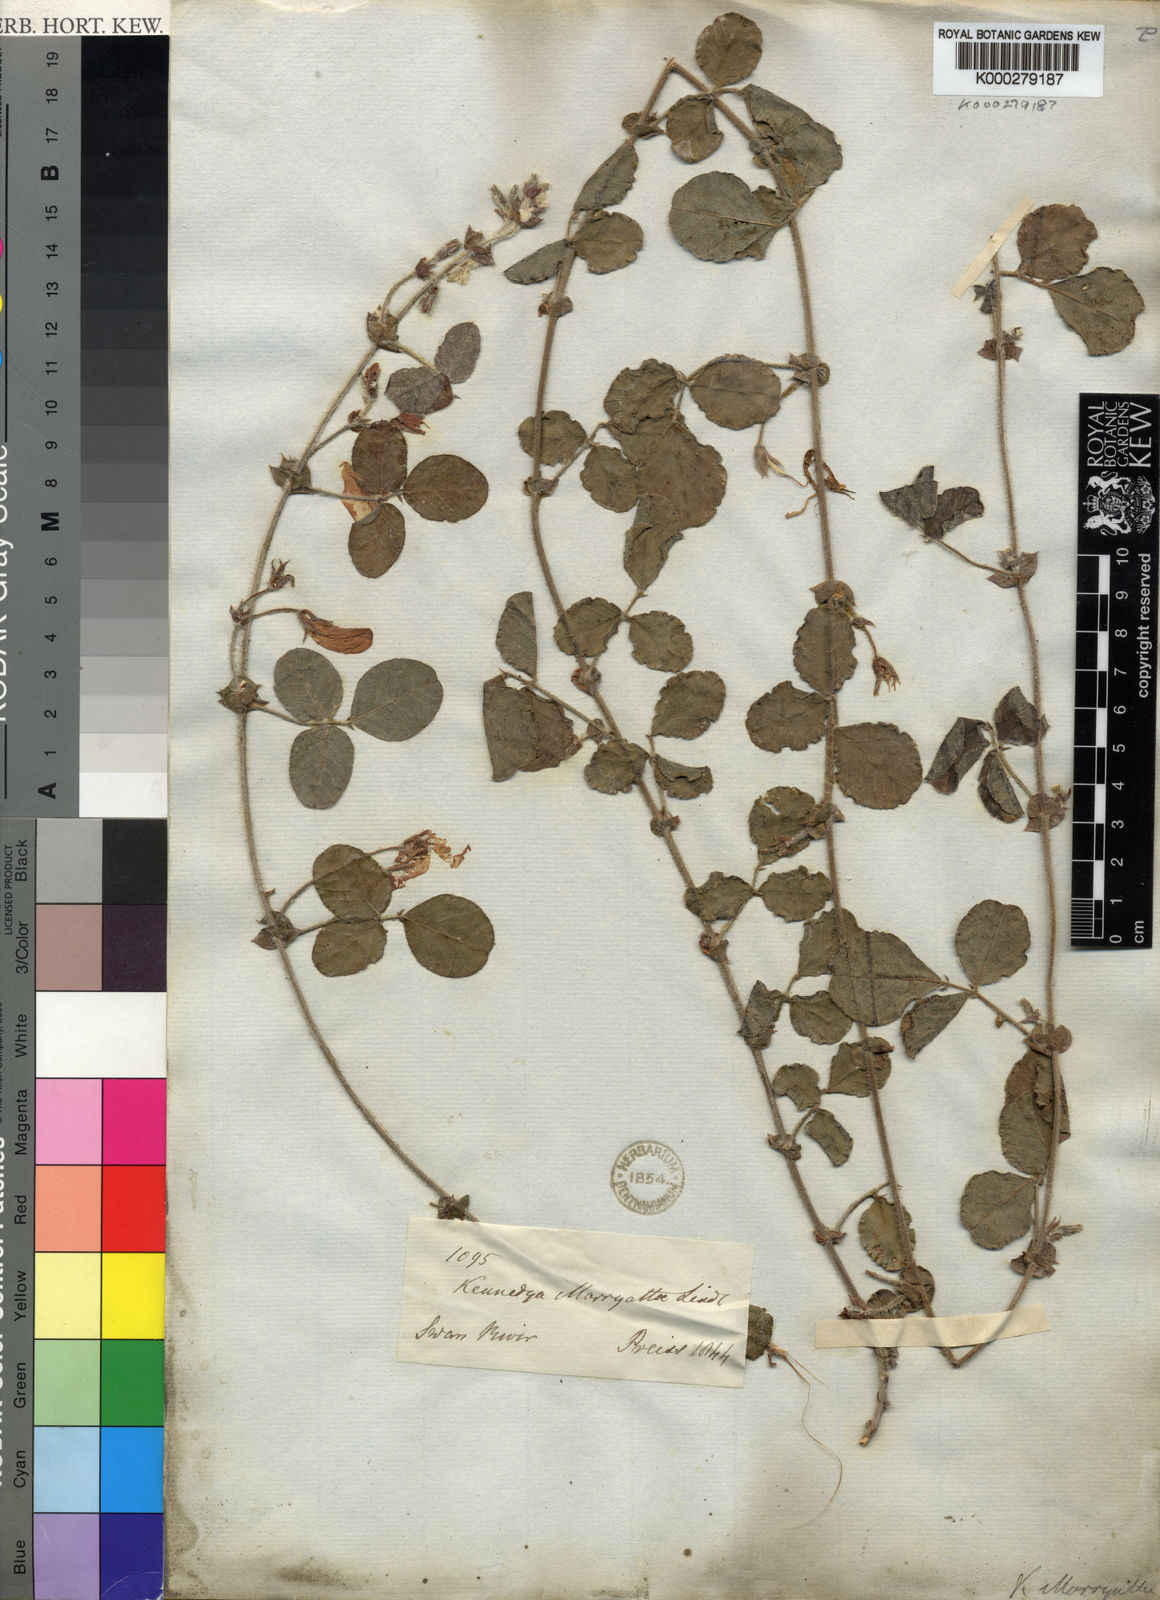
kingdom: Plantae
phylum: Tracheophyta
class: Magnoliopsida
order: Fabales
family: Fabaceae
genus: Kennedia
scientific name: Kennedia lateritia
